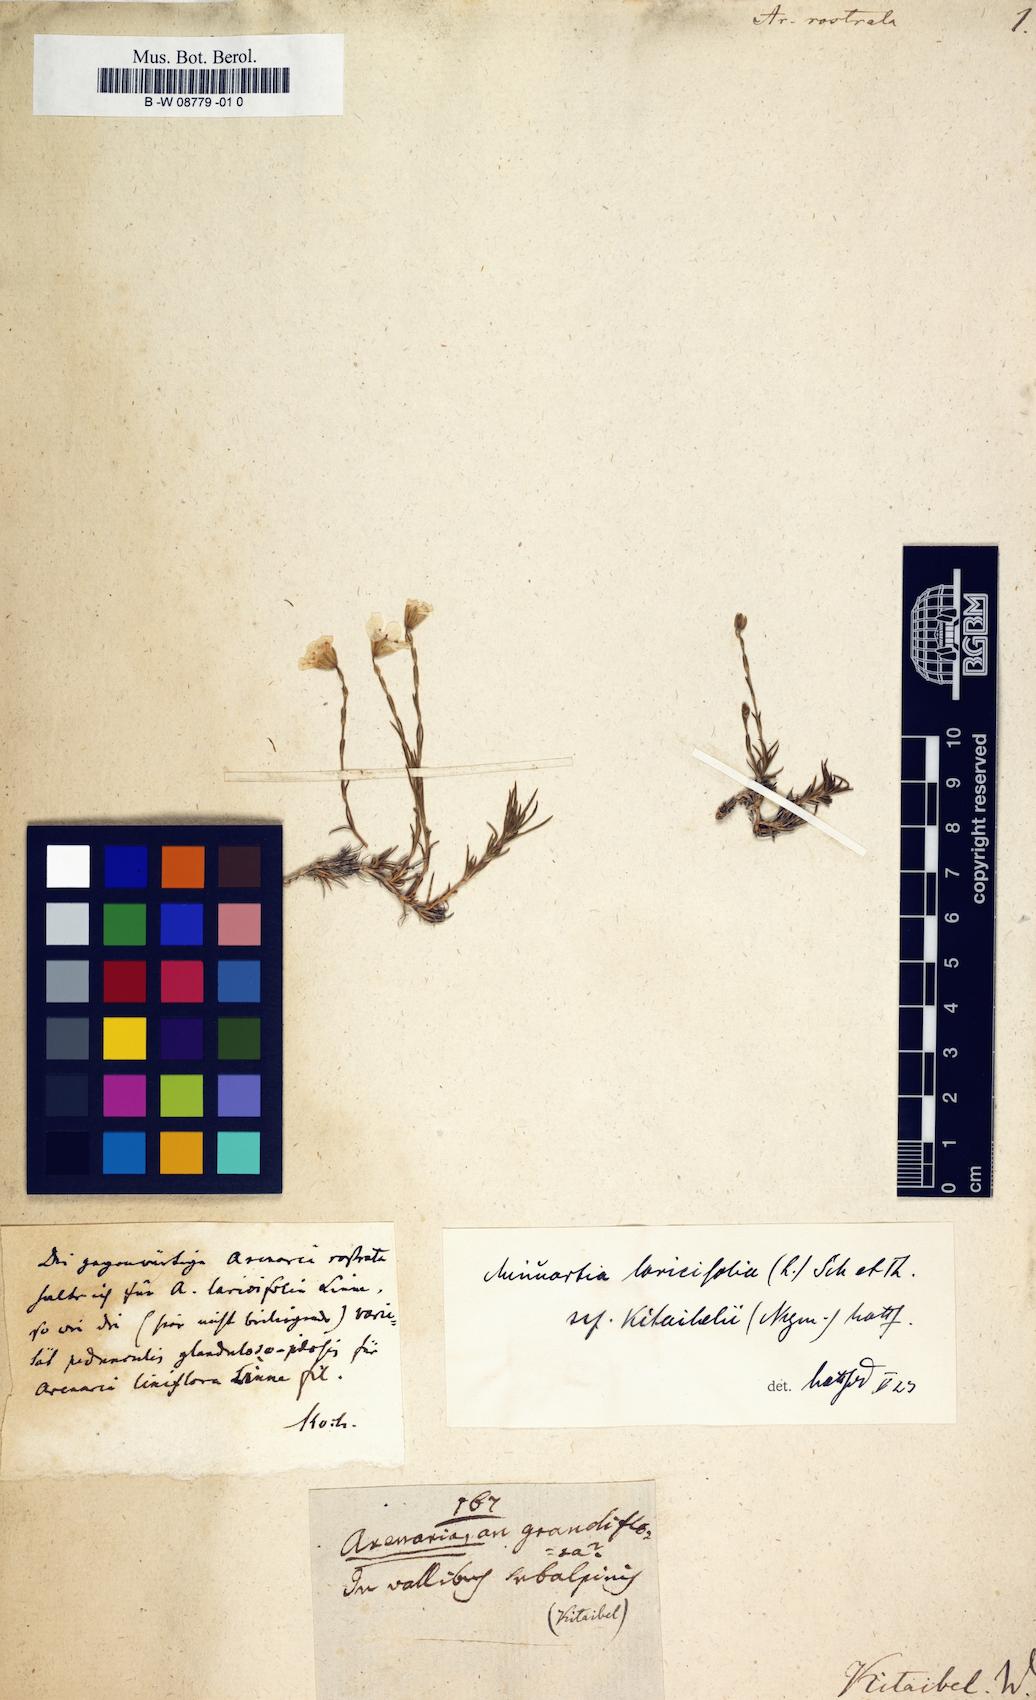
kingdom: Plantae
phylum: Tracheophyta
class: Magnoliopsida
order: Caryophyllales
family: Caryophyllaceae
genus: Cherleria
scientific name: Cherleria
